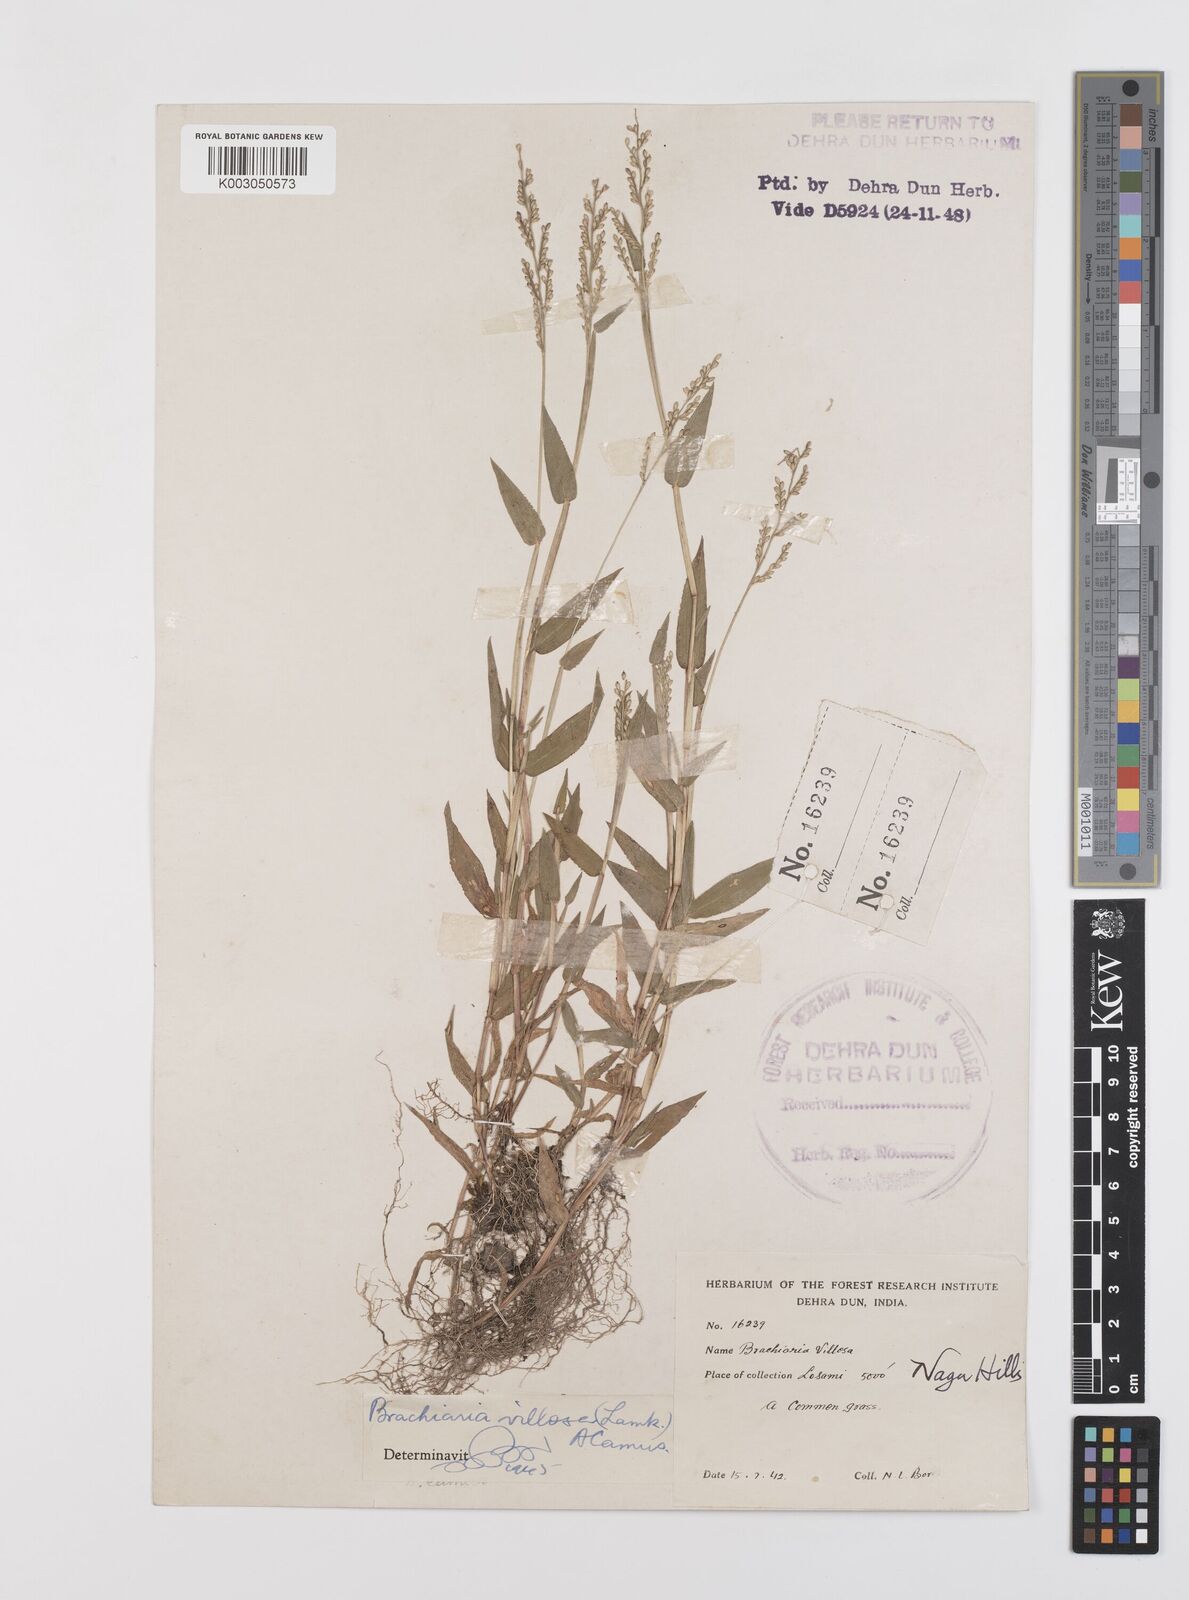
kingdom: Plantae
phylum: Tracheophyta
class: Liliopsida
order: Poales
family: Poaceae
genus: Urochloa
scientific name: Urochloa villosa
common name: Hairy signalgrass
